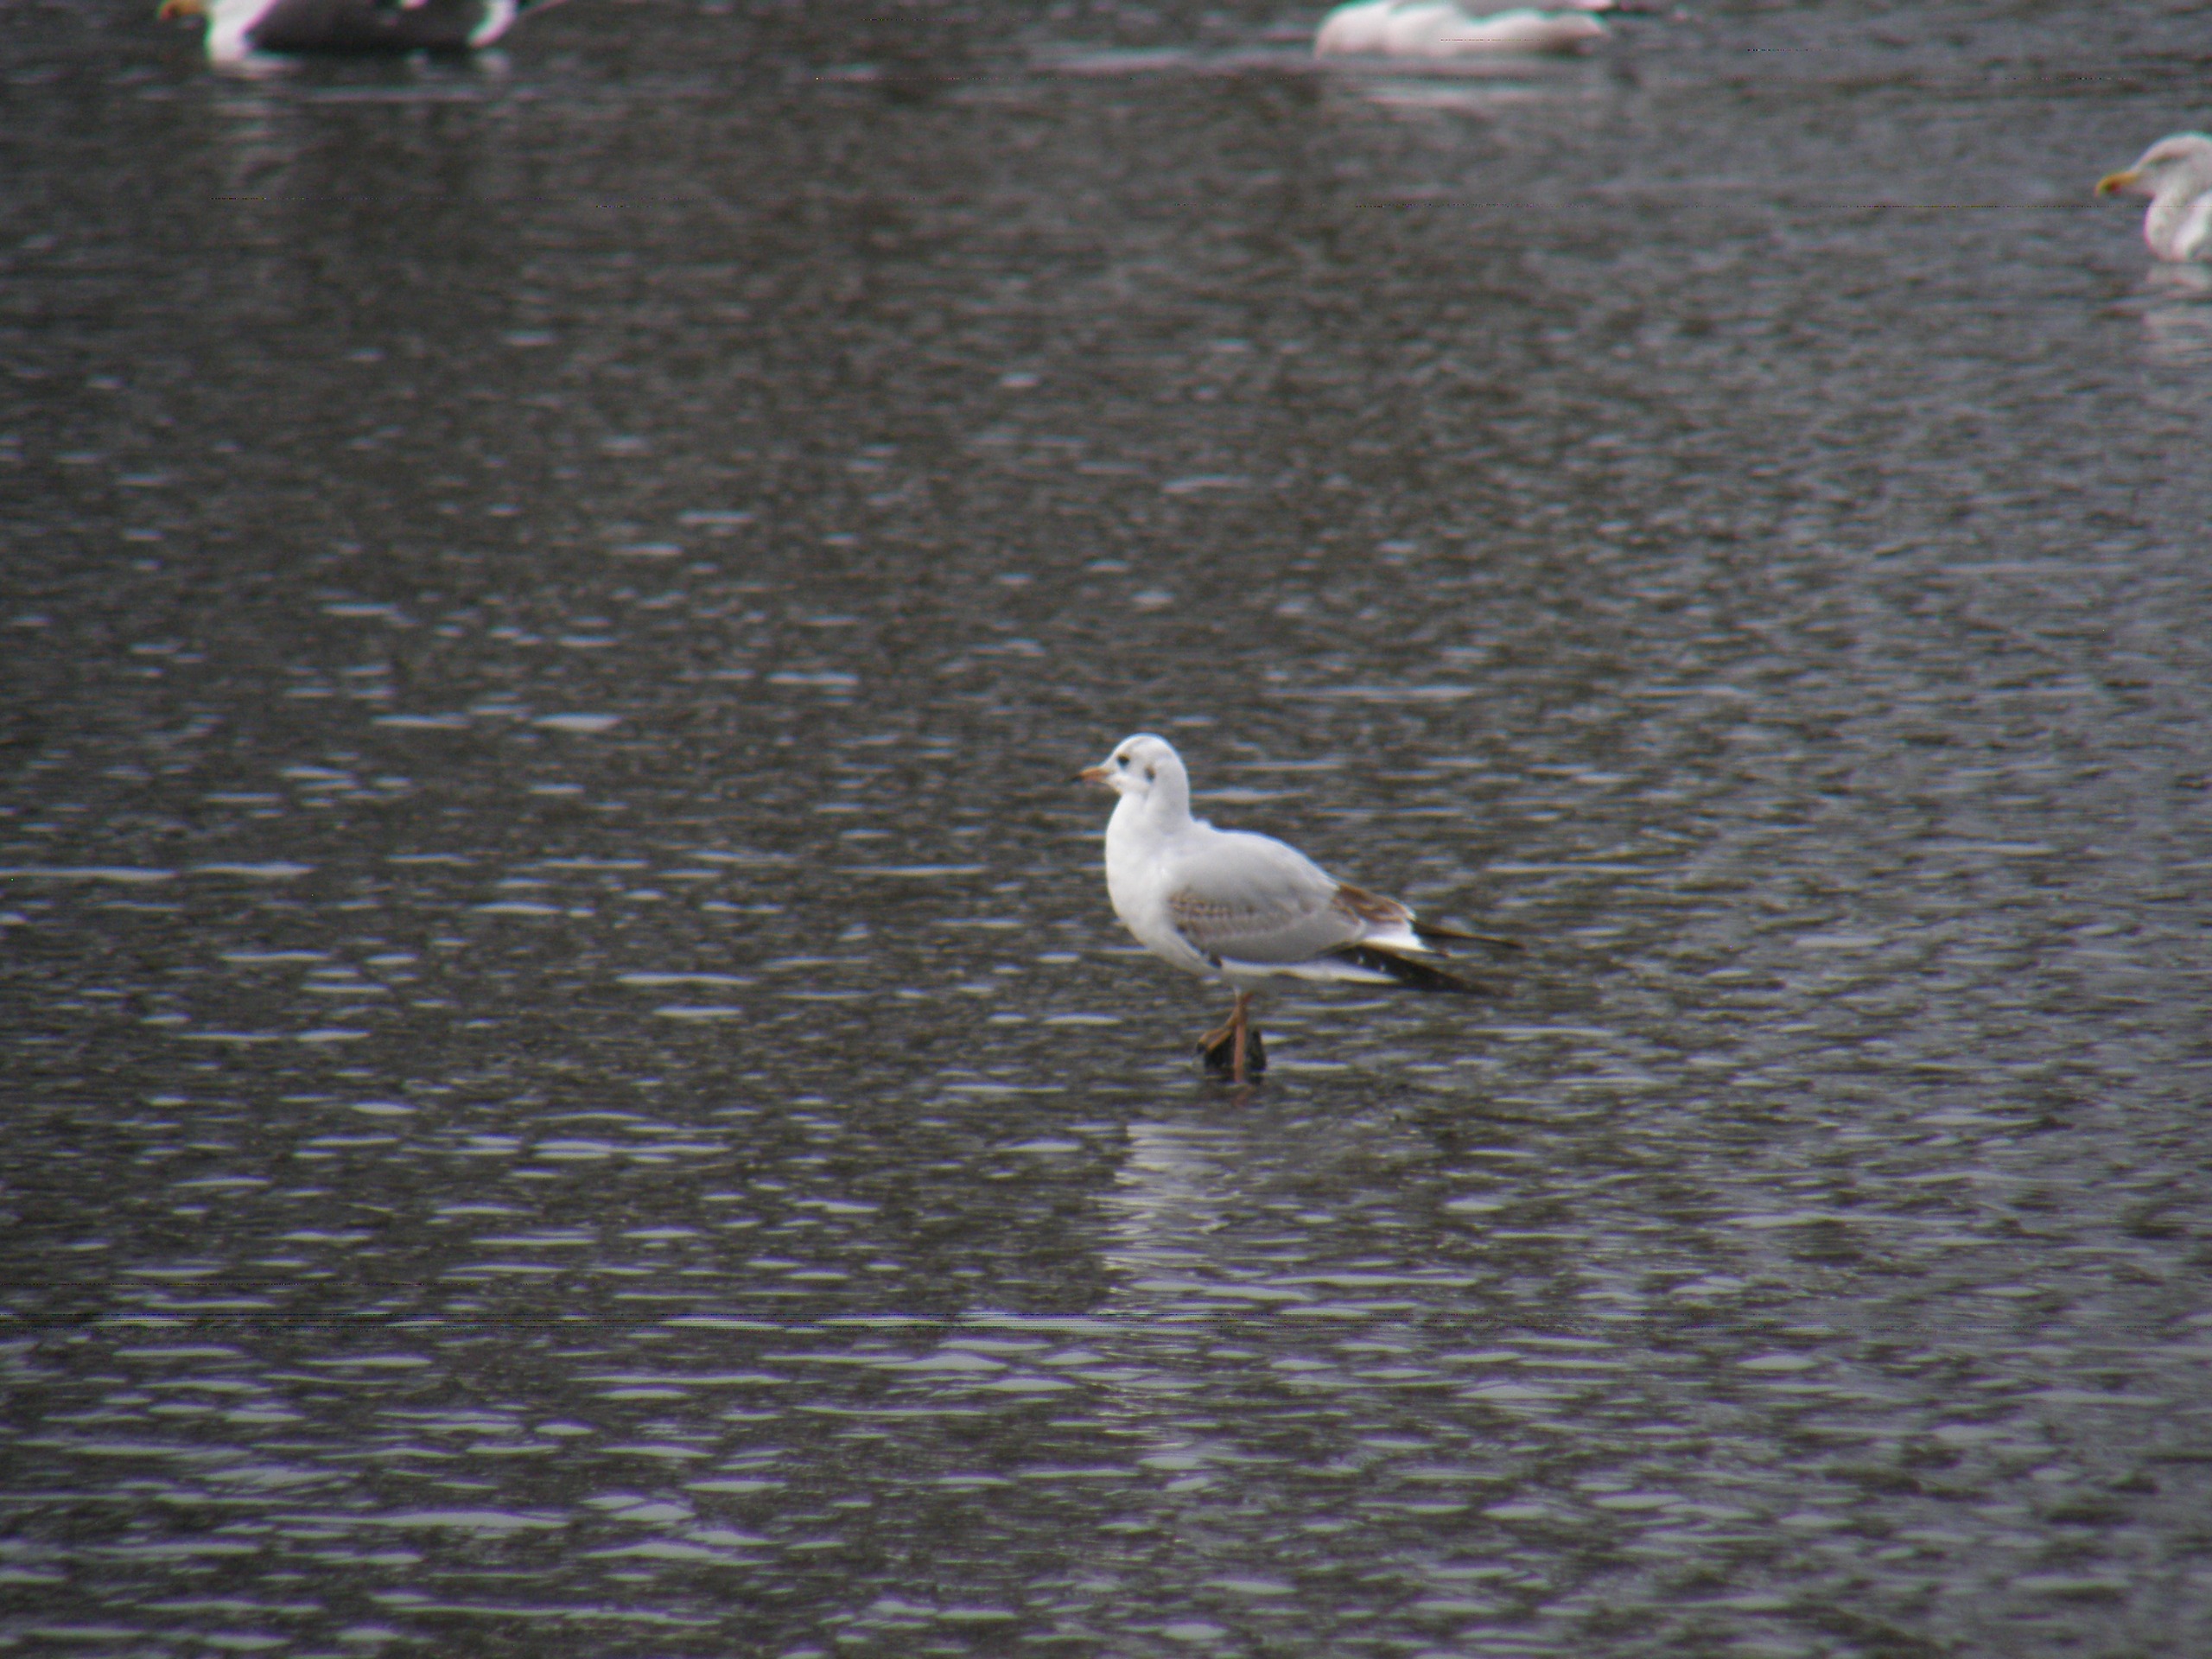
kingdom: Animalia
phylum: Chordata
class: Aves
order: Charadriiformes
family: Laridae
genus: Chroicocephalus
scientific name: Chroicocephalus ridibundus
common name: Hættemåge
